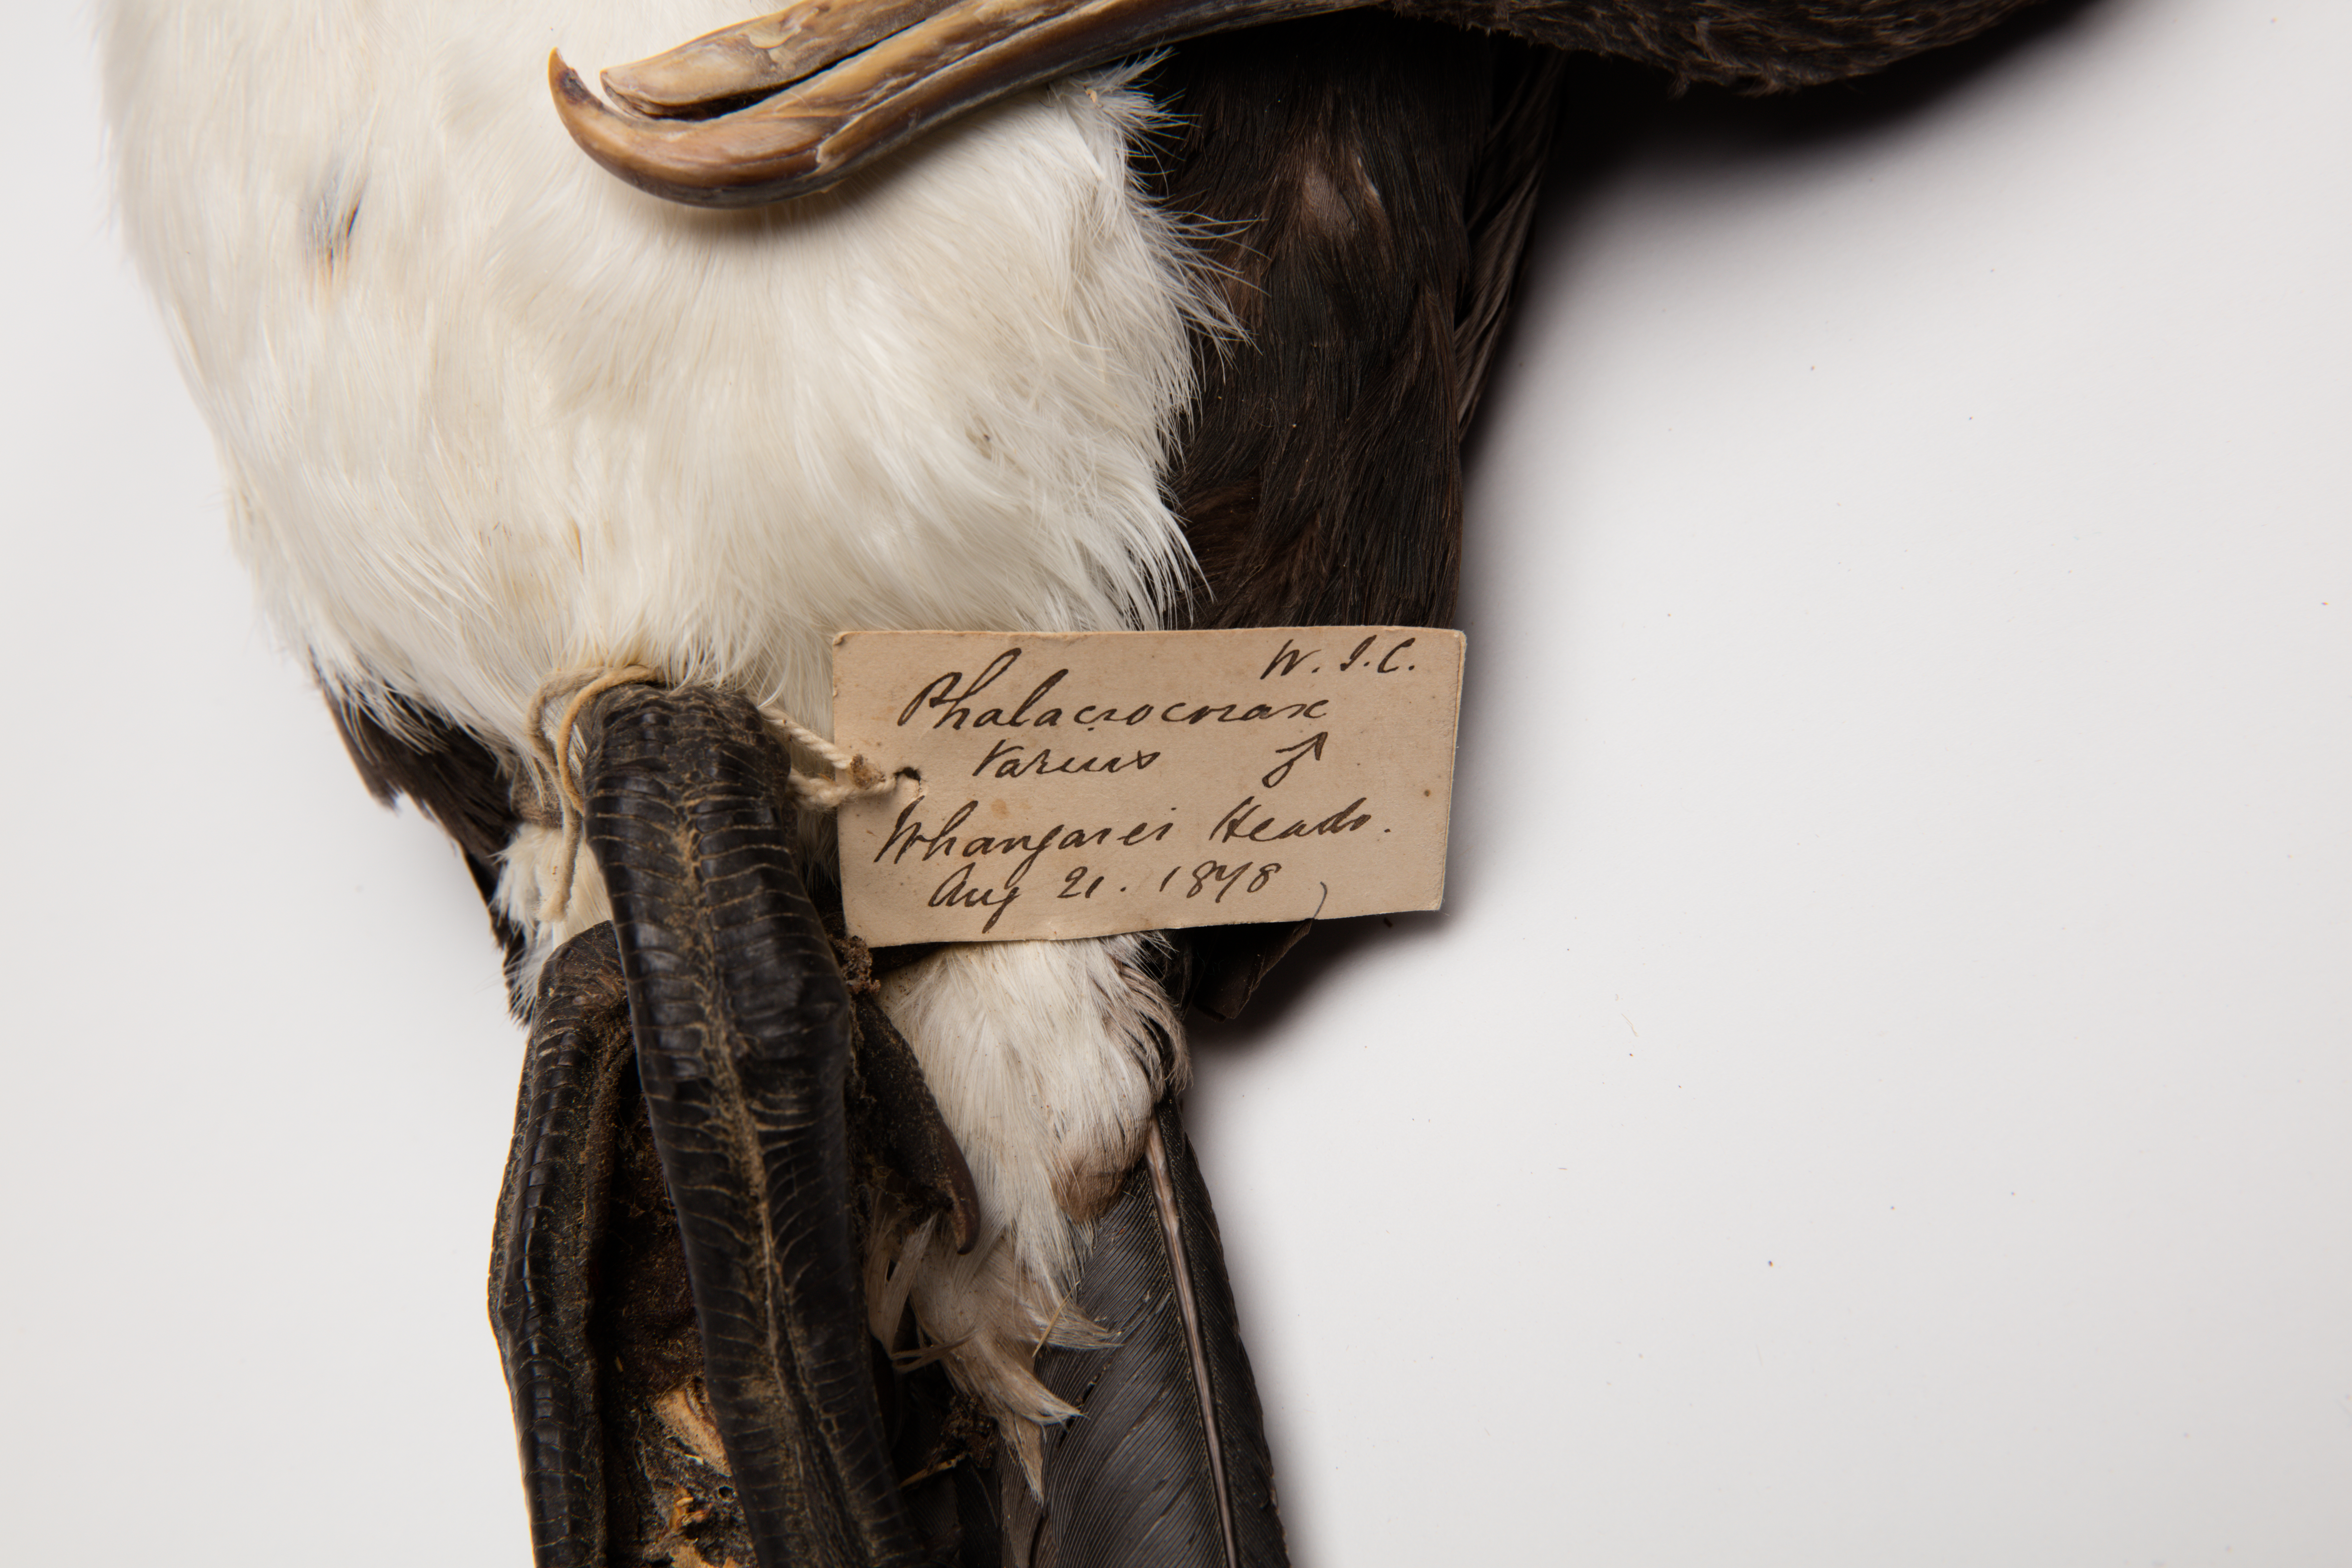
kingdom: Animalia
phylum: Chordata
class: Aves
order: Suliformes
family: Phalacrocoracidae
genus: Phalacrocorax
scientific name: Phalacrocorax varius
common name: Pied cormorant
